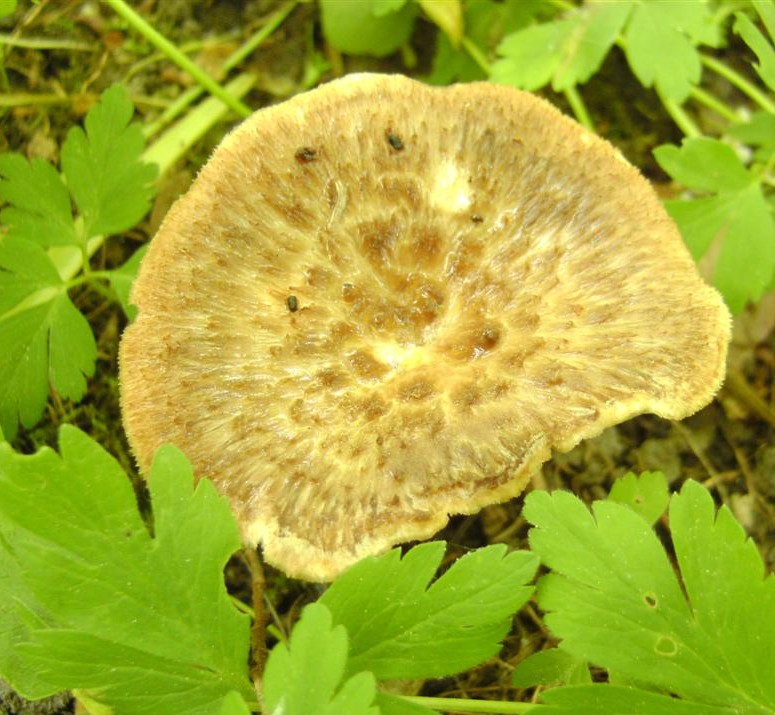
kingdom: Fungi
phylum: Basidiomycota
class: Agaricomycetes
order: Polyporales
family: Polyporaceae
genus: Polyporus
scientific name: Polyporus tuberaster
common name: knoldet stilkporesvamp
